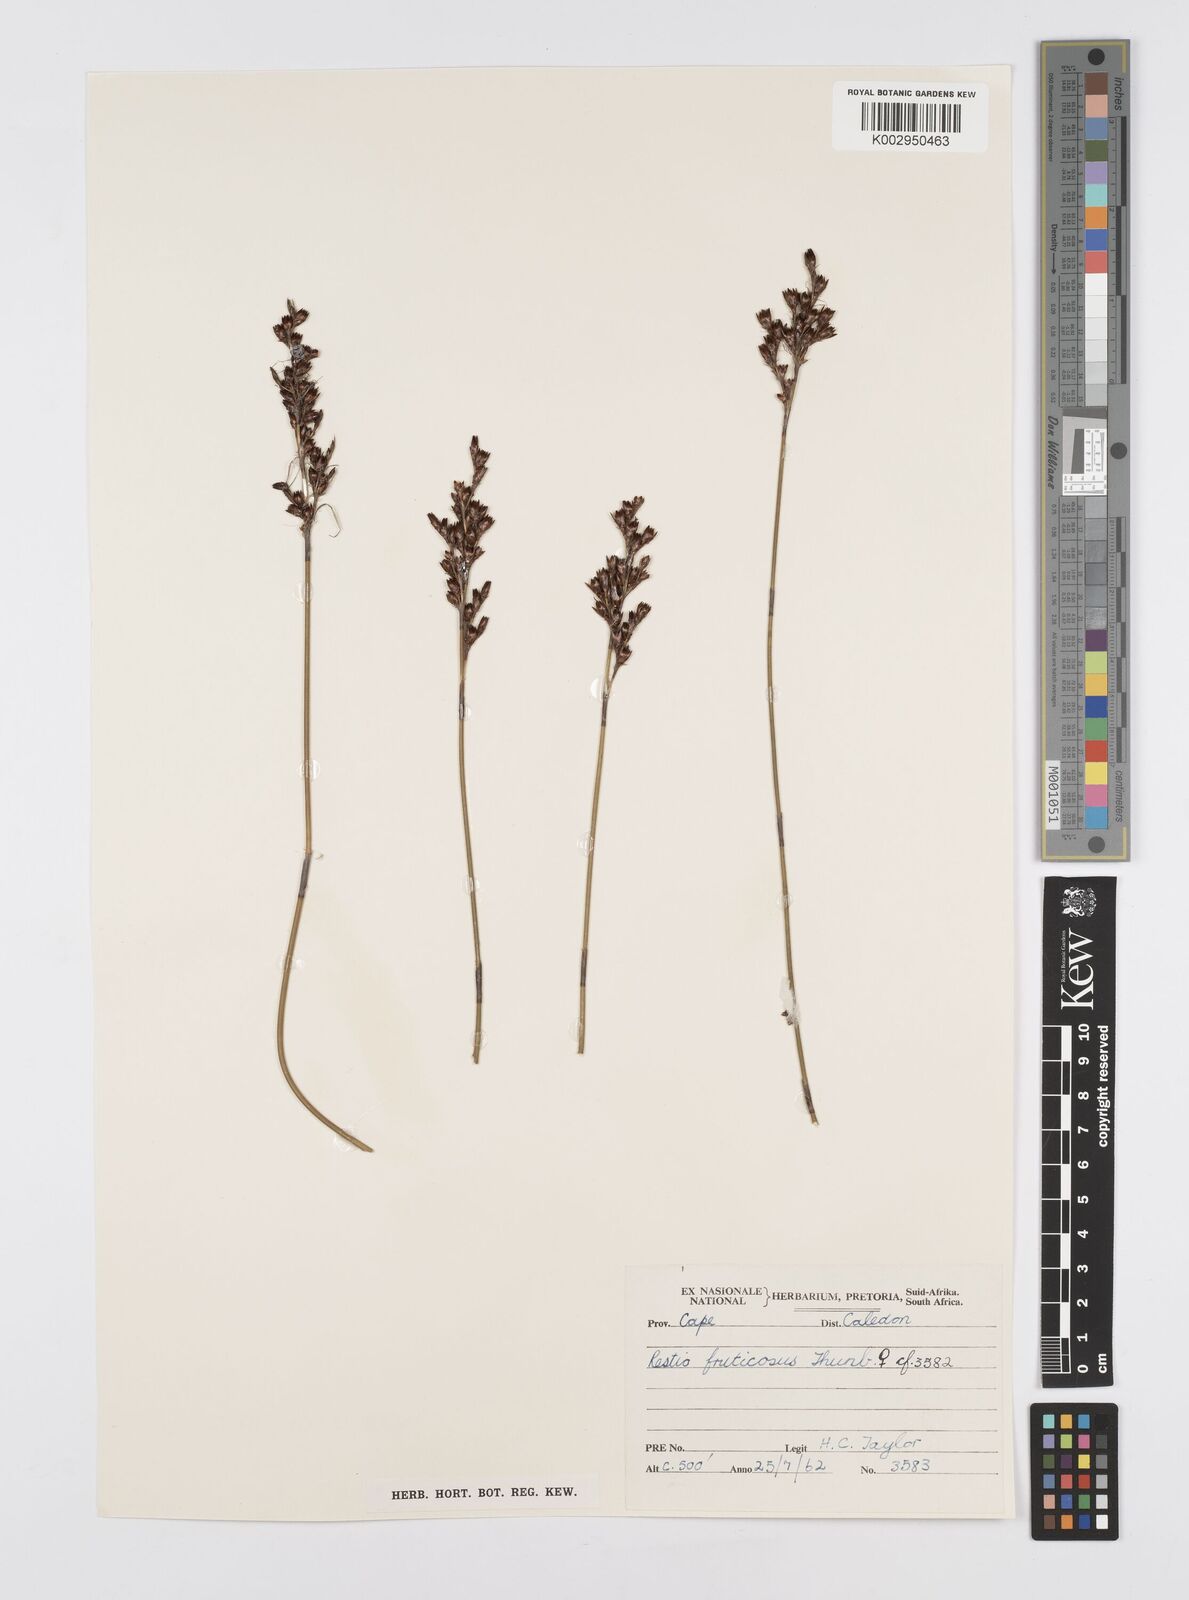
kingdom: Plantae
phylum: Tracheophyta
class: Liliopsida
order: Poales
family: Restionaceae
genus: Rhodocoma
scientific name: Rhodocoma fruticosa
